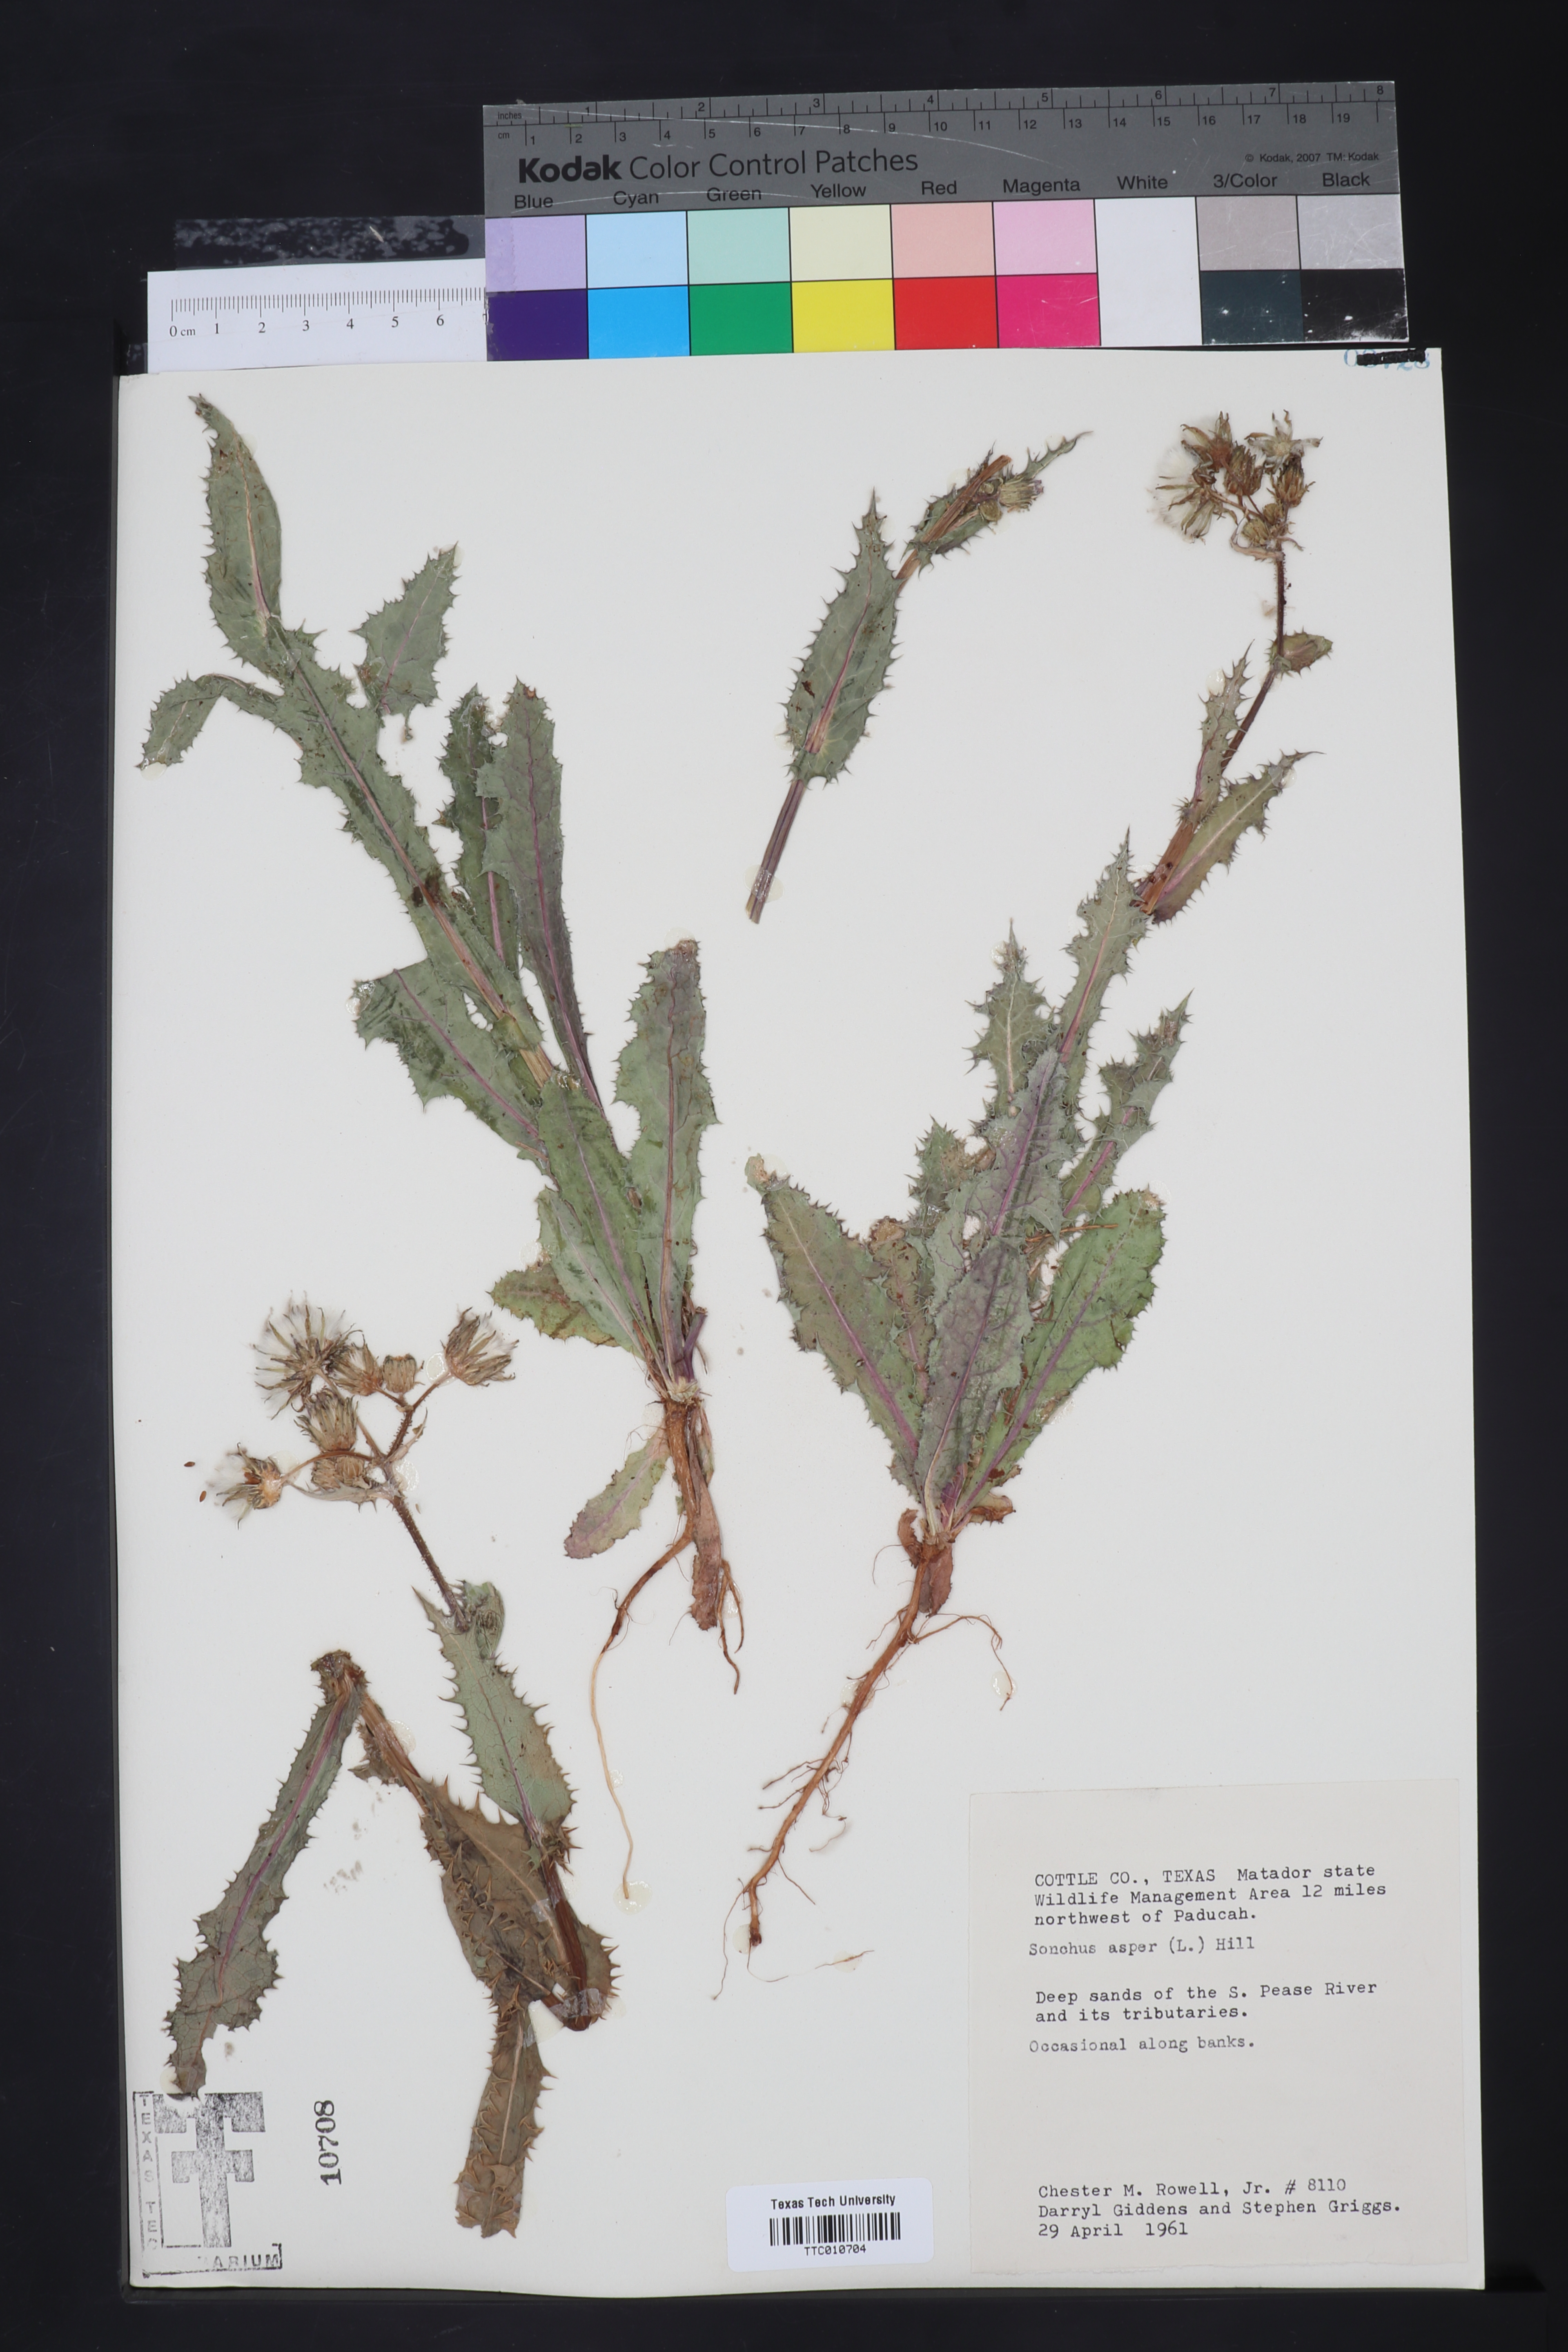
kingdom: Plantae
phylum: Tracheophyta
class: Magnoliopsida
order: Asterales
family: Asteraceae
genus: Sonchus
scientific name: Sonchus asper
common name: Prickly sow-thistle
